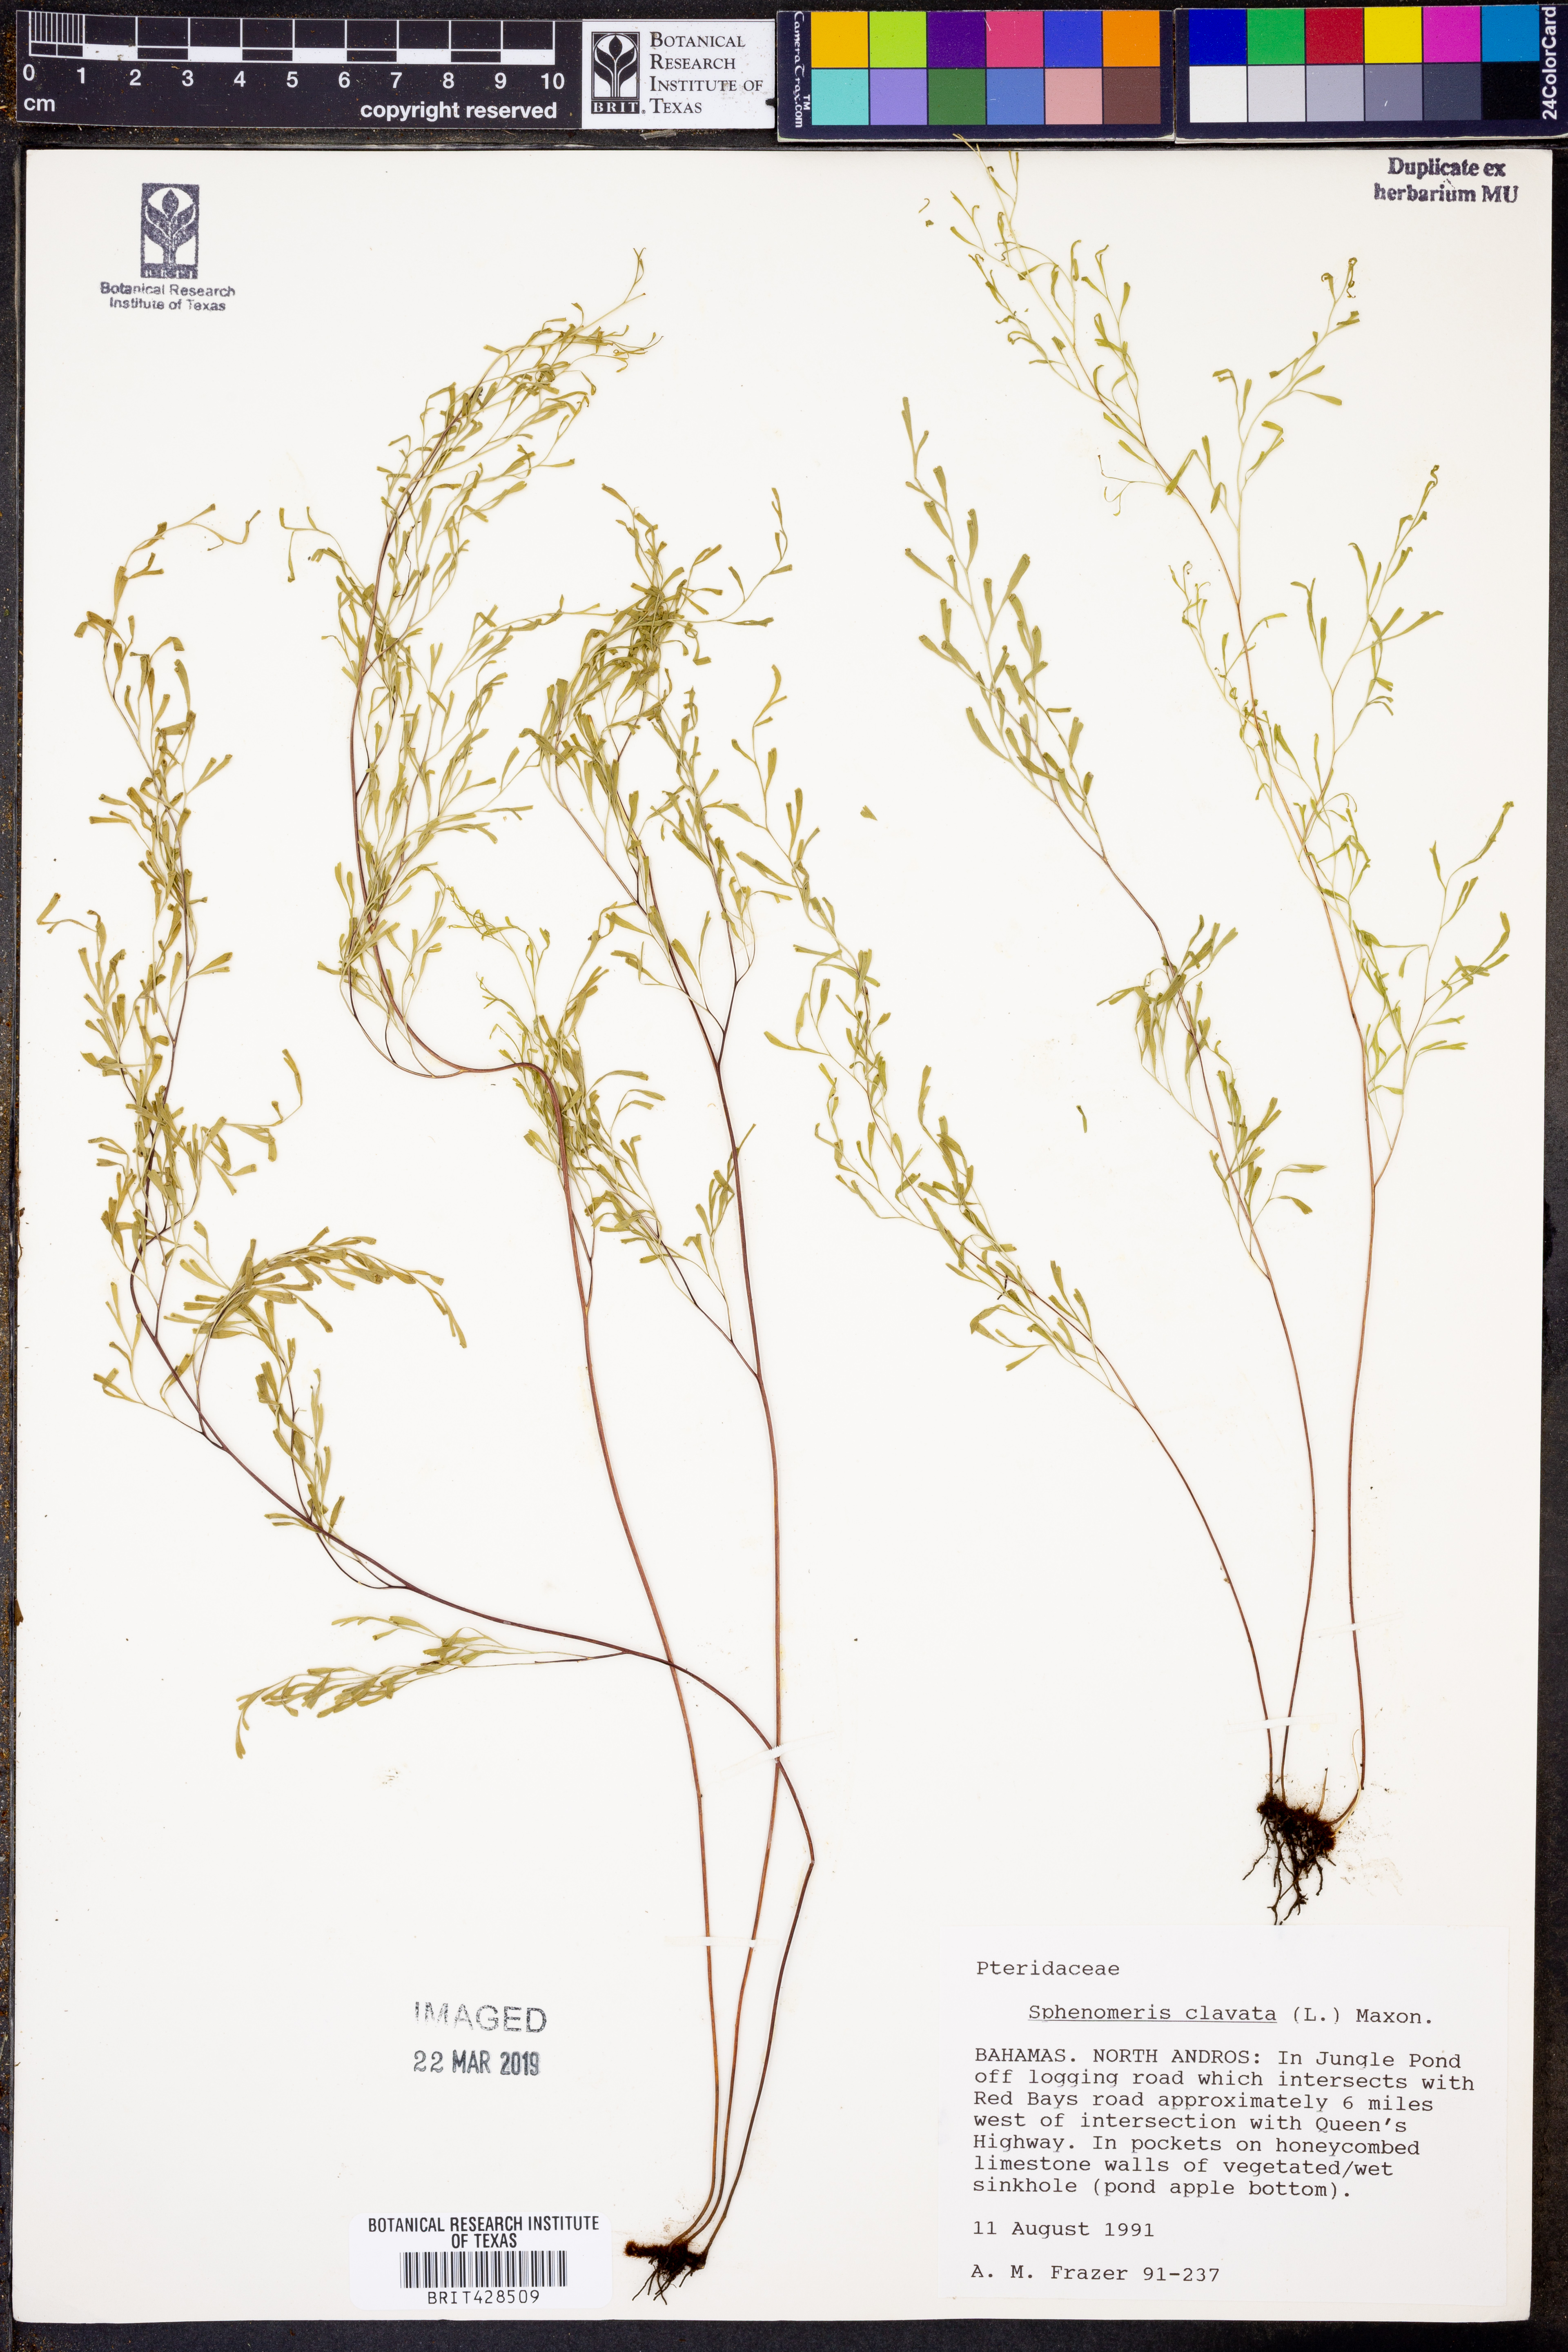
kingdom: Plantae
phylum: Tracheophyta
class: Polypodiopsida
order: Polypodiales
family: Lindsaeaceae
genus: Sphenomeris
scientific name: Sphenomeris clavata
